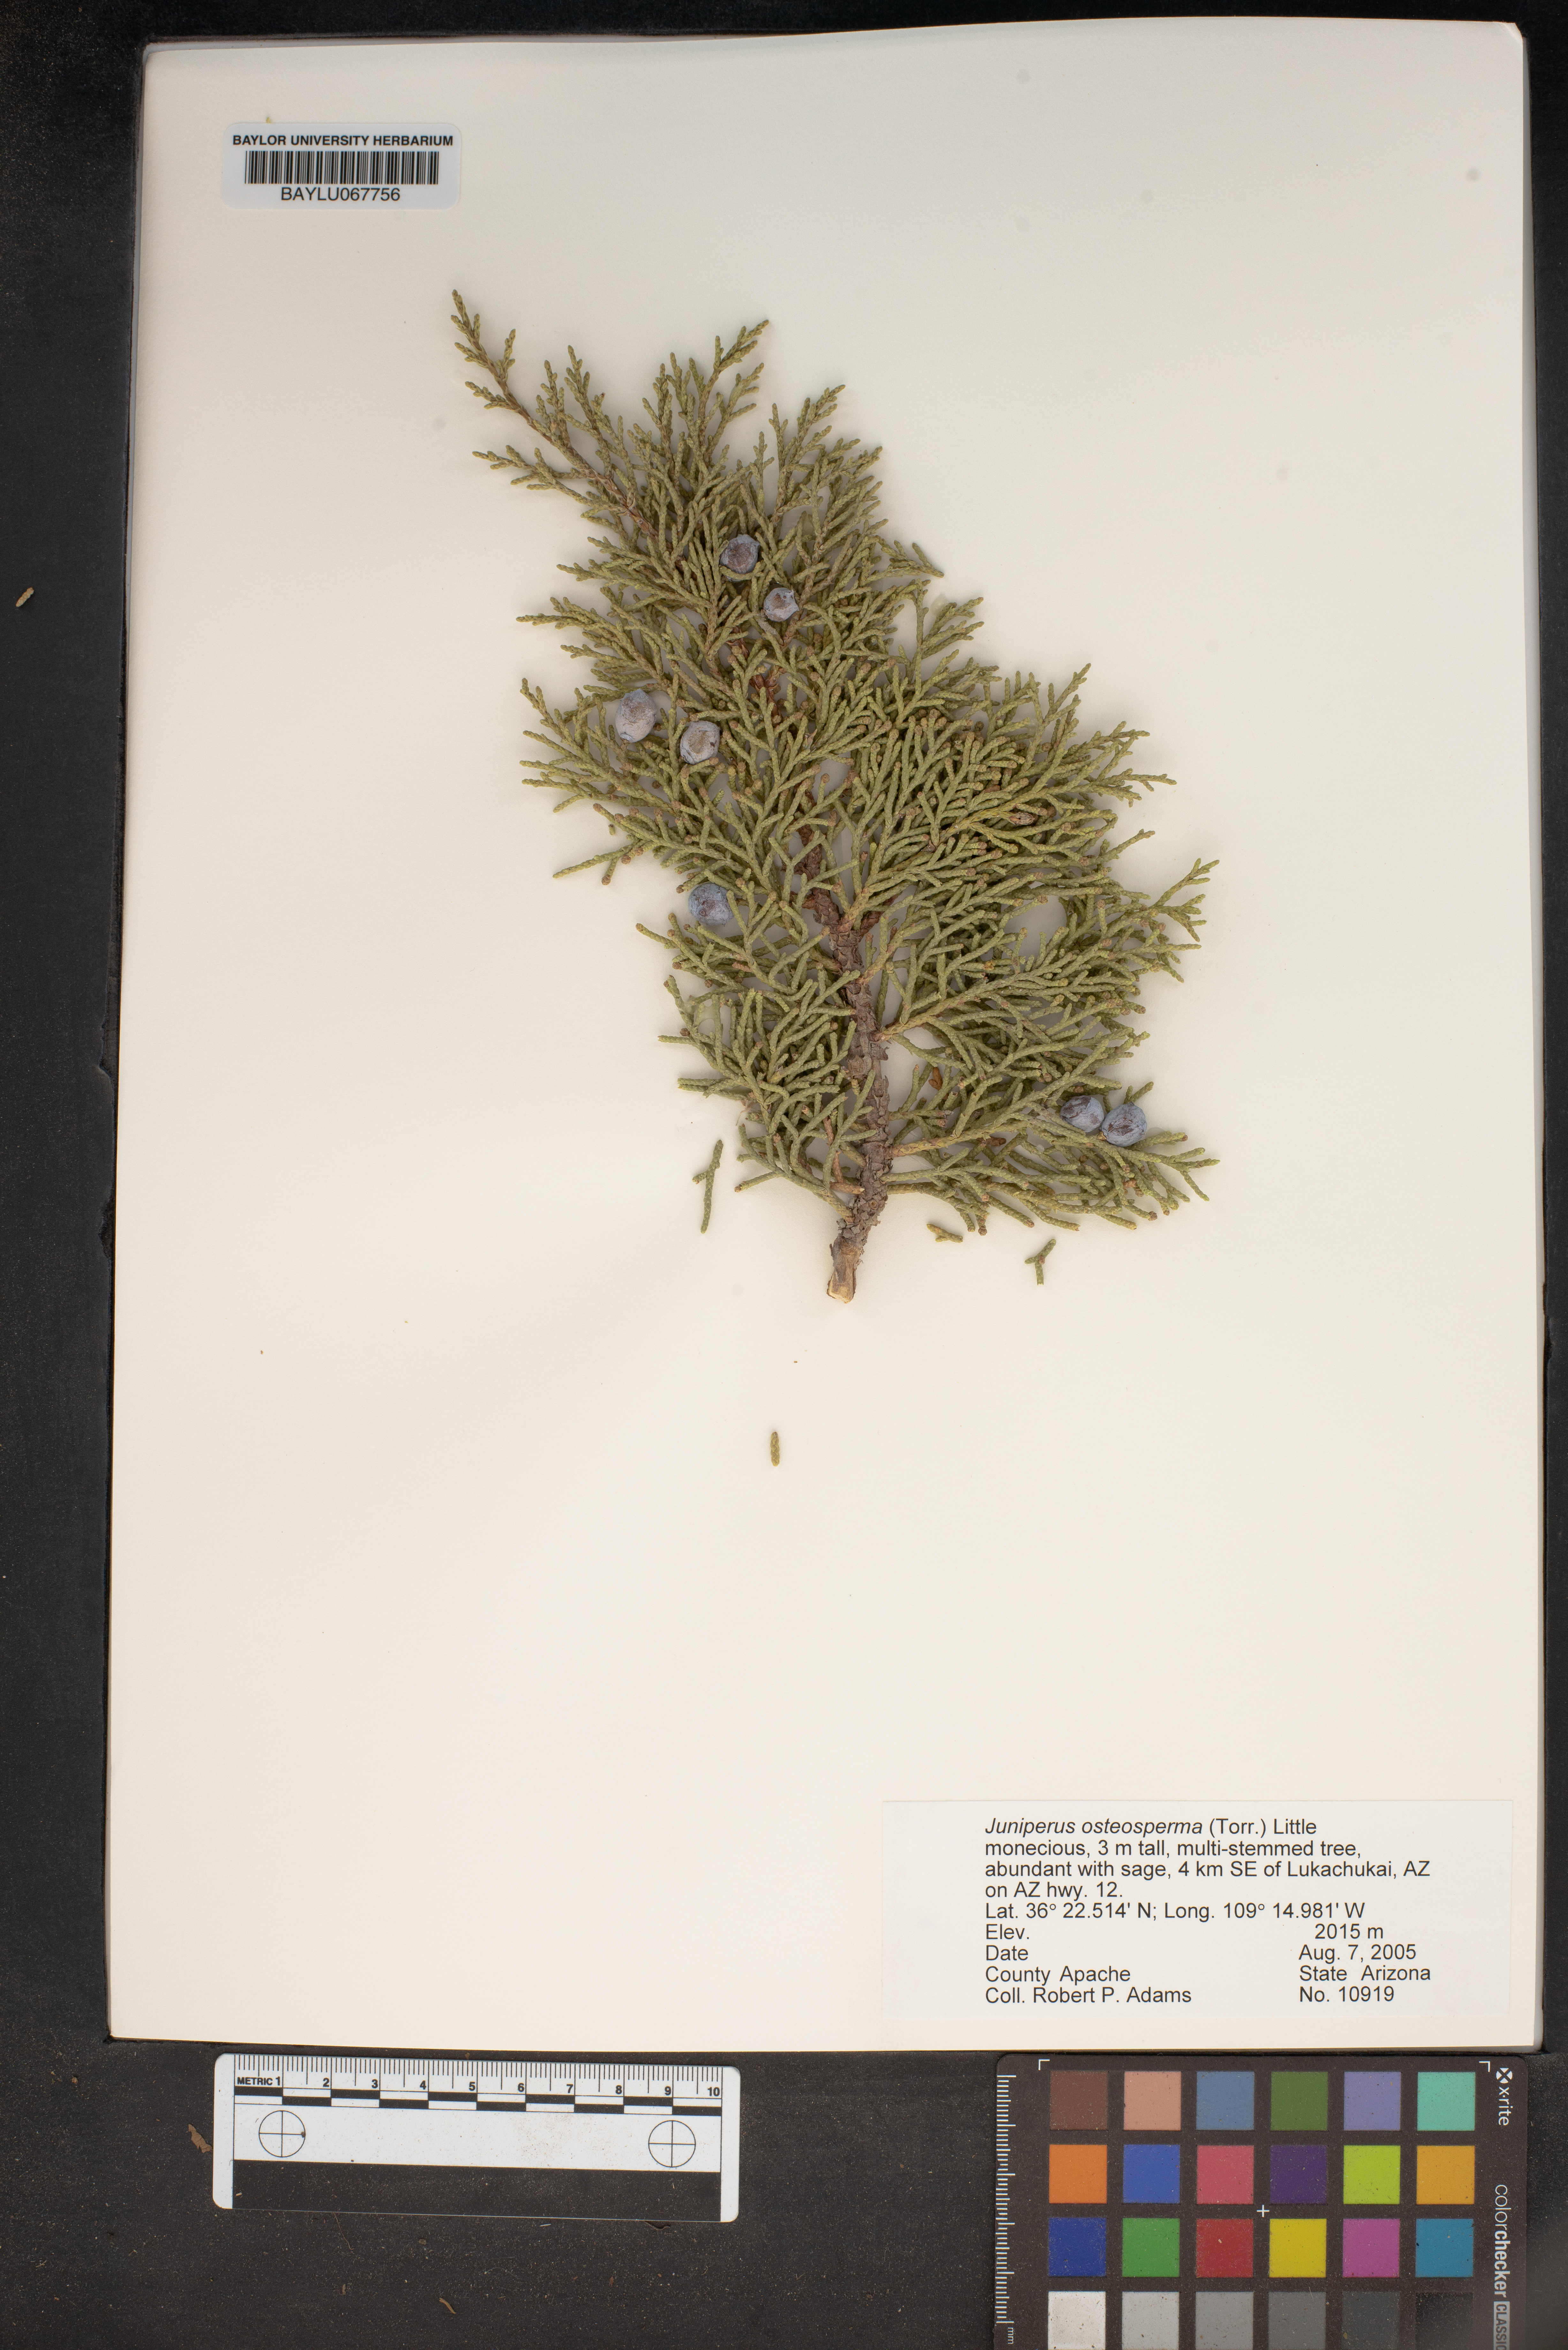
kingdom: Plantae
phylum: Tracheophyta
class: Pinopsida
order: Pinales
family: Cupressaceae
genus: Juniperus
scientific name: Juniperus osteosperma
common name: Utah juniper
